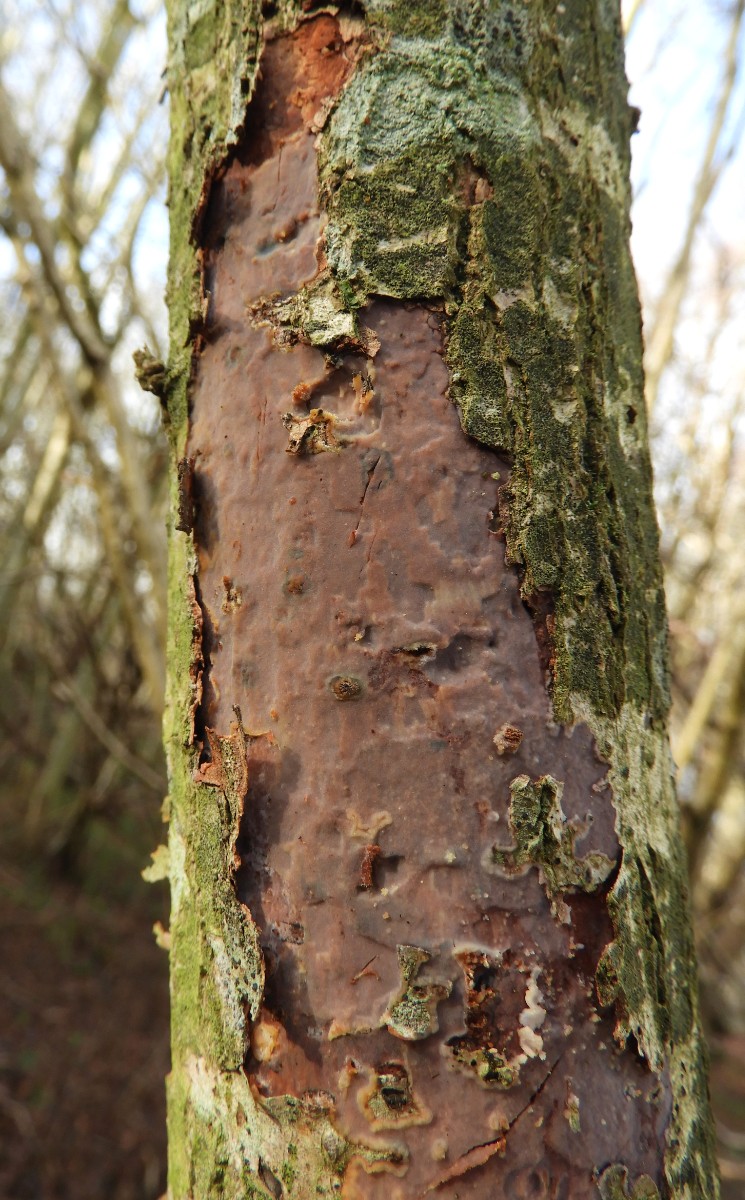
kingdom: Fungi
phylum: Basidiomycota
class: Agaricomycetes
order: Corticiales
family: Vuilleminiaceae
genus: Vuilleminia
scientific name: Vuilleminia comedens
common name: almindelig barksprænger
